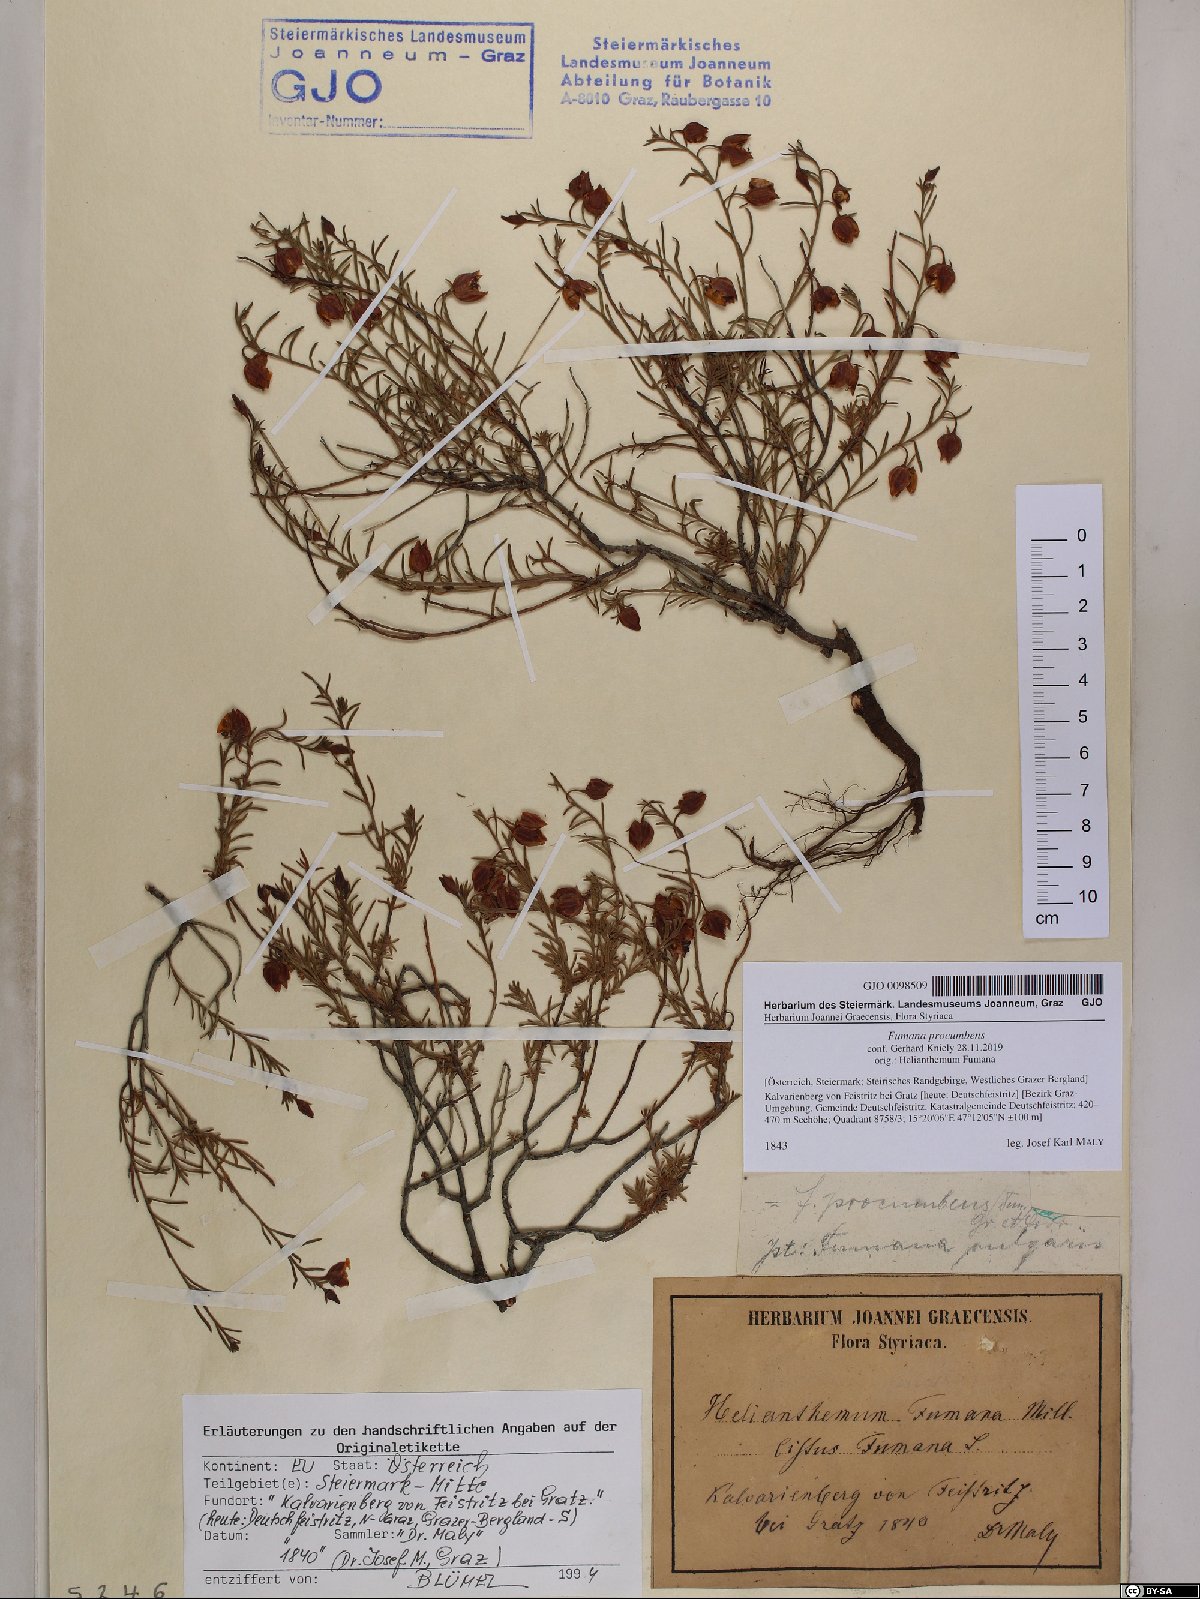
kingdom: Plantae
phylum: Tracheophyta
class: Magnoliopsida
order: Malvales
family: Cistaceae
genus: Fumana
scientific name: Fumana procumbens
